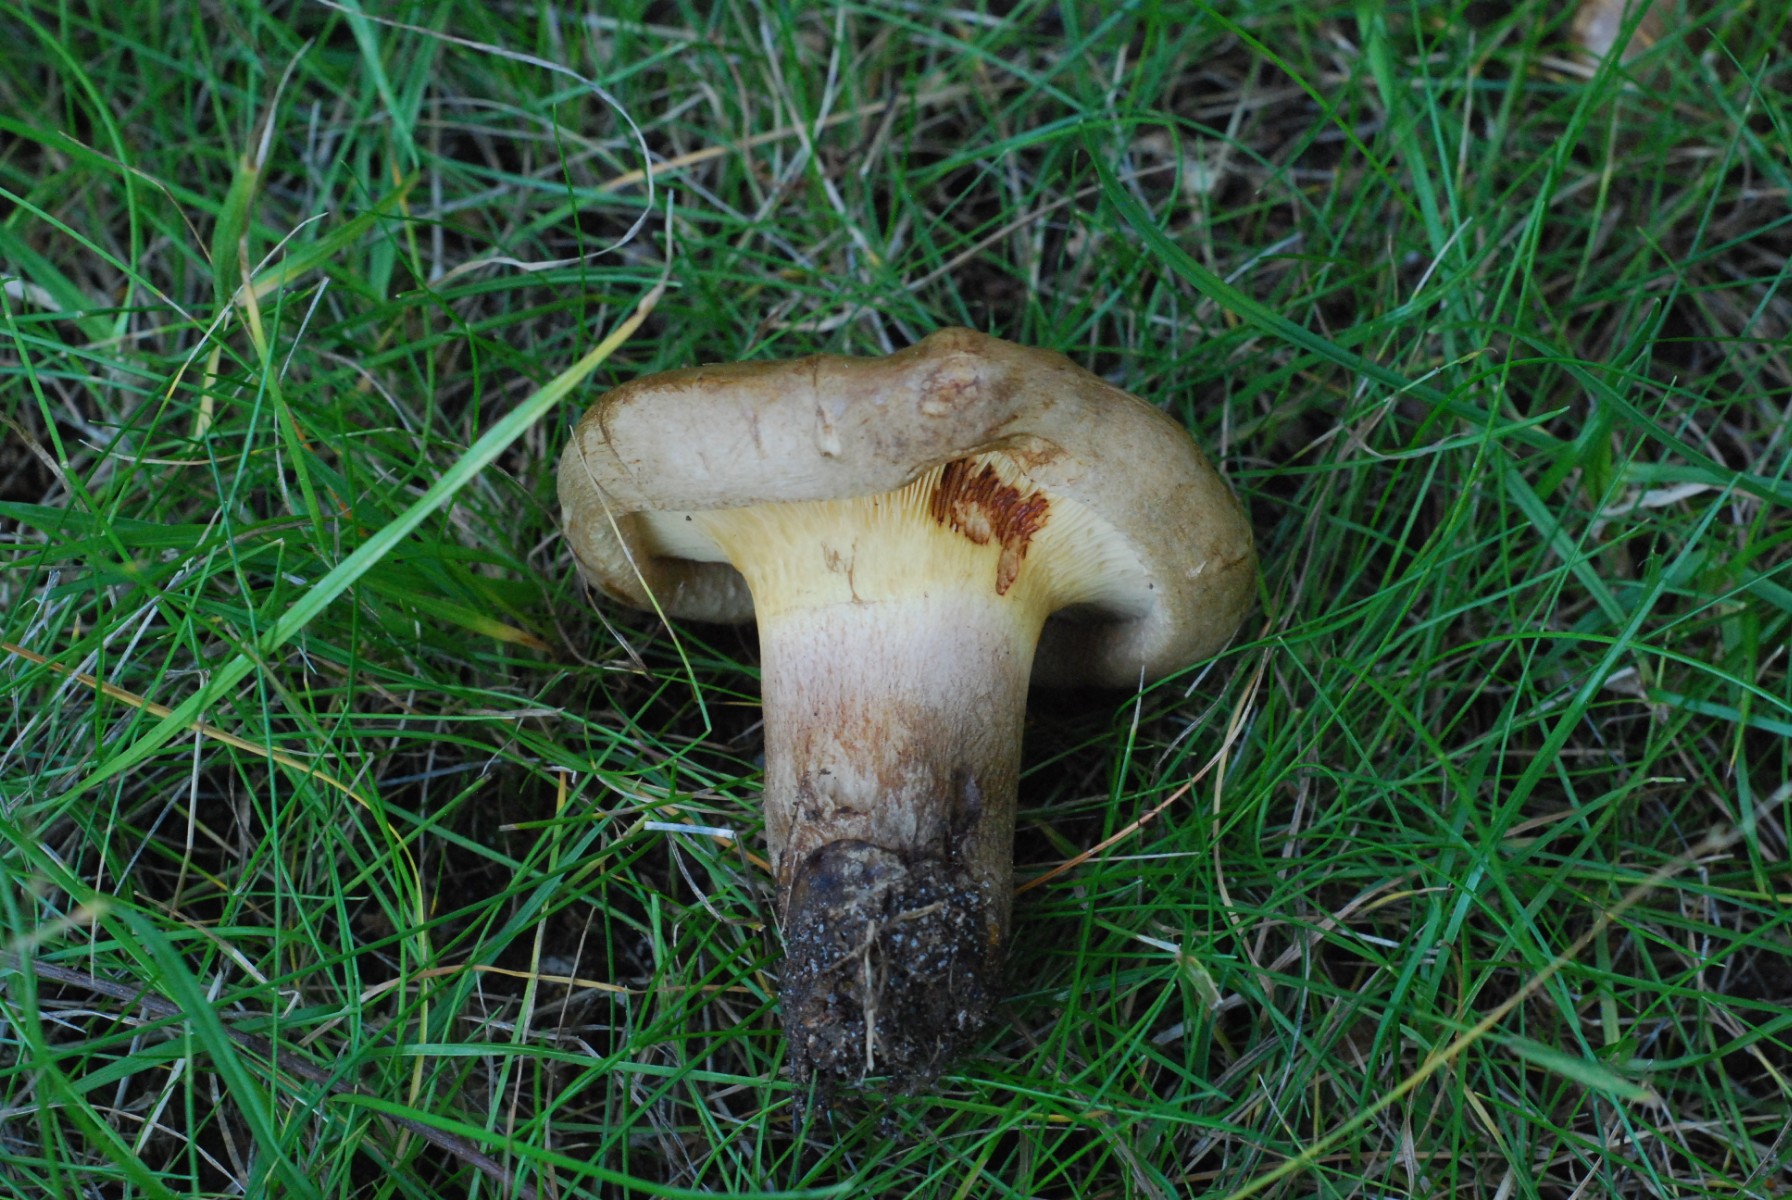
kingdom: Fungi
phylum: Basidiomycota
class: Agaricomycetes
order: Boletales
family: Paxillaceae
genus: Paxillus
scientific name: Paxillus obscurisporus
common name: mahognisporet netbladhat
